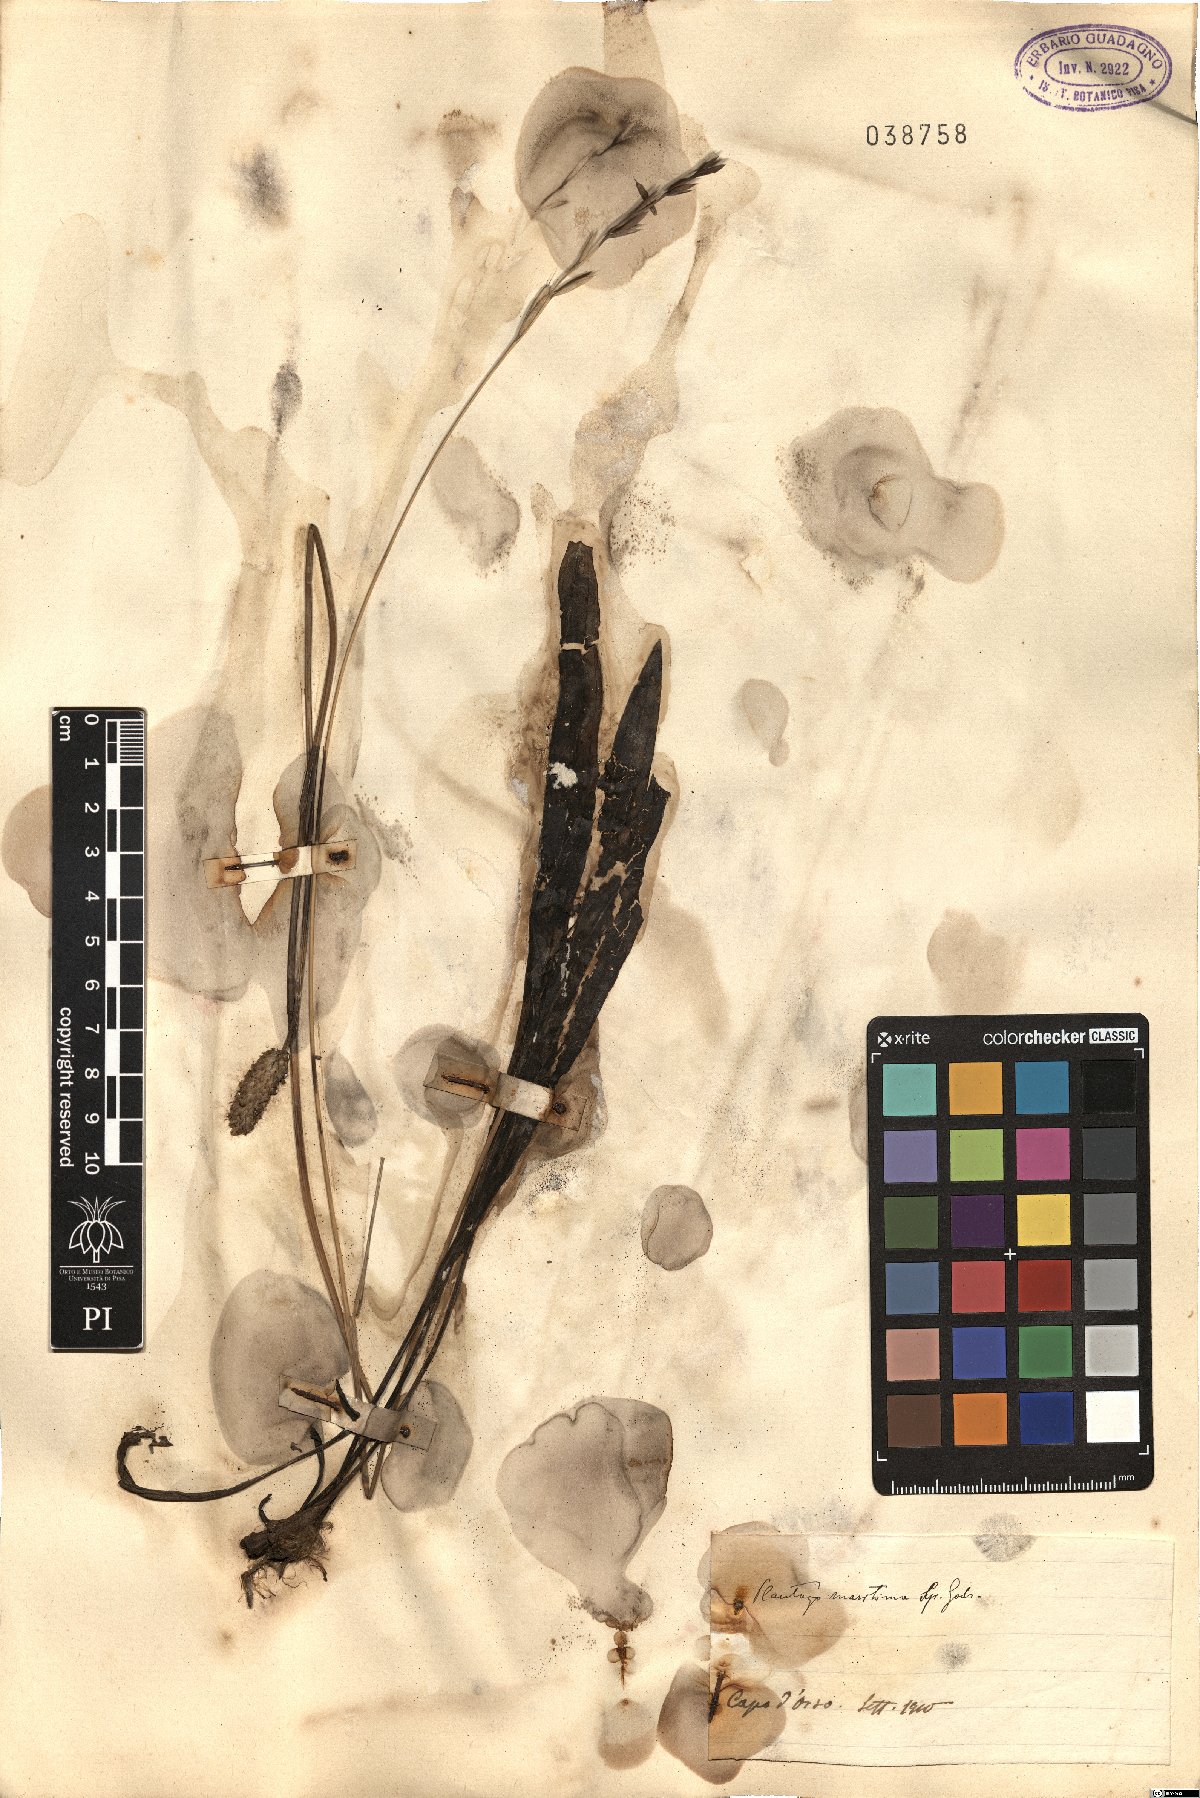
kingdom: Plantae
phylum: Tracheophyta
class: Magnoliopsida
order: Lamiales
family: Plantaginaceae
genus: Plantago
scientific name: Plantago maritima
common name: Sea plantain
